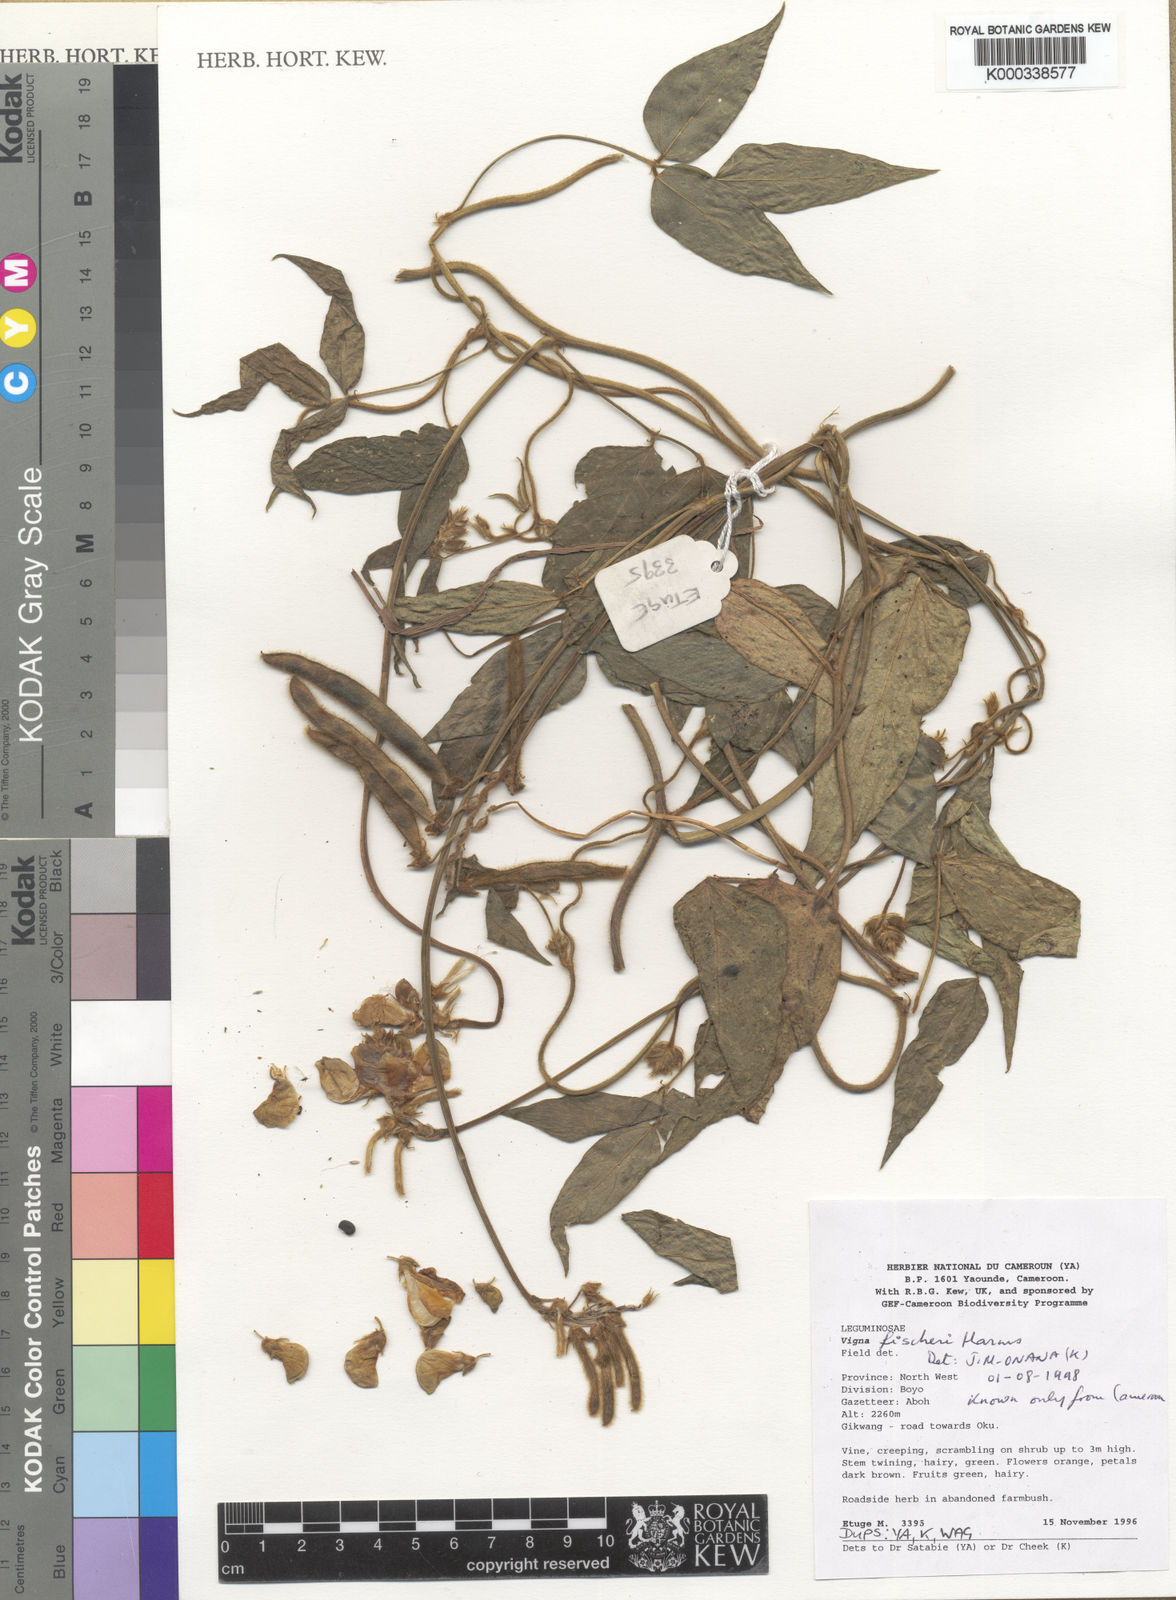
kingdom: Plantae
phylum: Tracheophyta
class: Magnoliopsida
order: Fabales
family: Fabaceae
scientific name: Fabaceae
